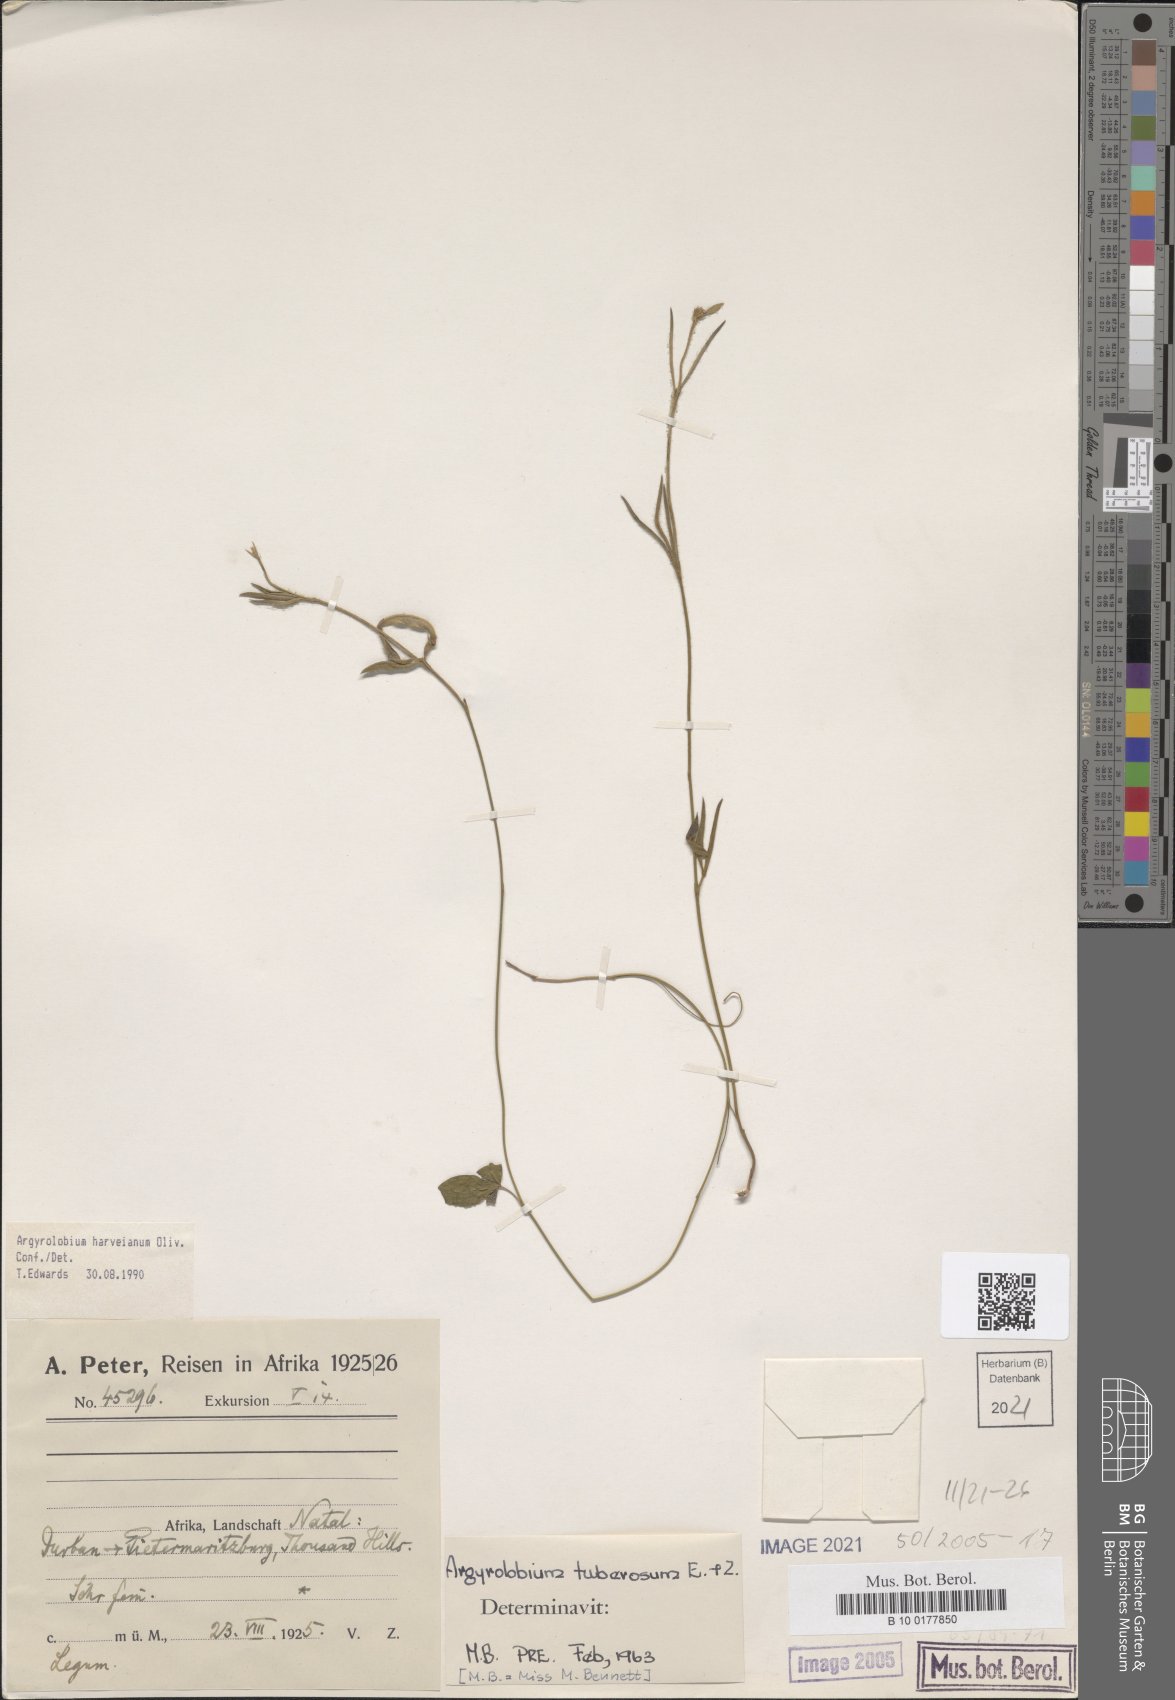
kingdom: Plantae
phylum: Tracheophyta
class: Magnoliopsida
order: Fabales
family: Fabaceae
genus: Argyrolobium
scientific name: Argyrolobium harveyanum
